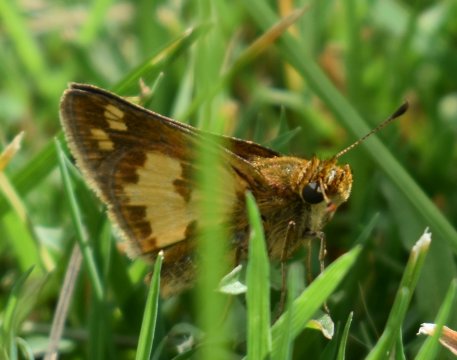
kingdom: Animalia
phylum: Arthropoda
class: Insecta
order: Lepidoptera
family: Hesperiidae
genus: Polites
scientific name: Polites coras
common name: Peck's Skipper
